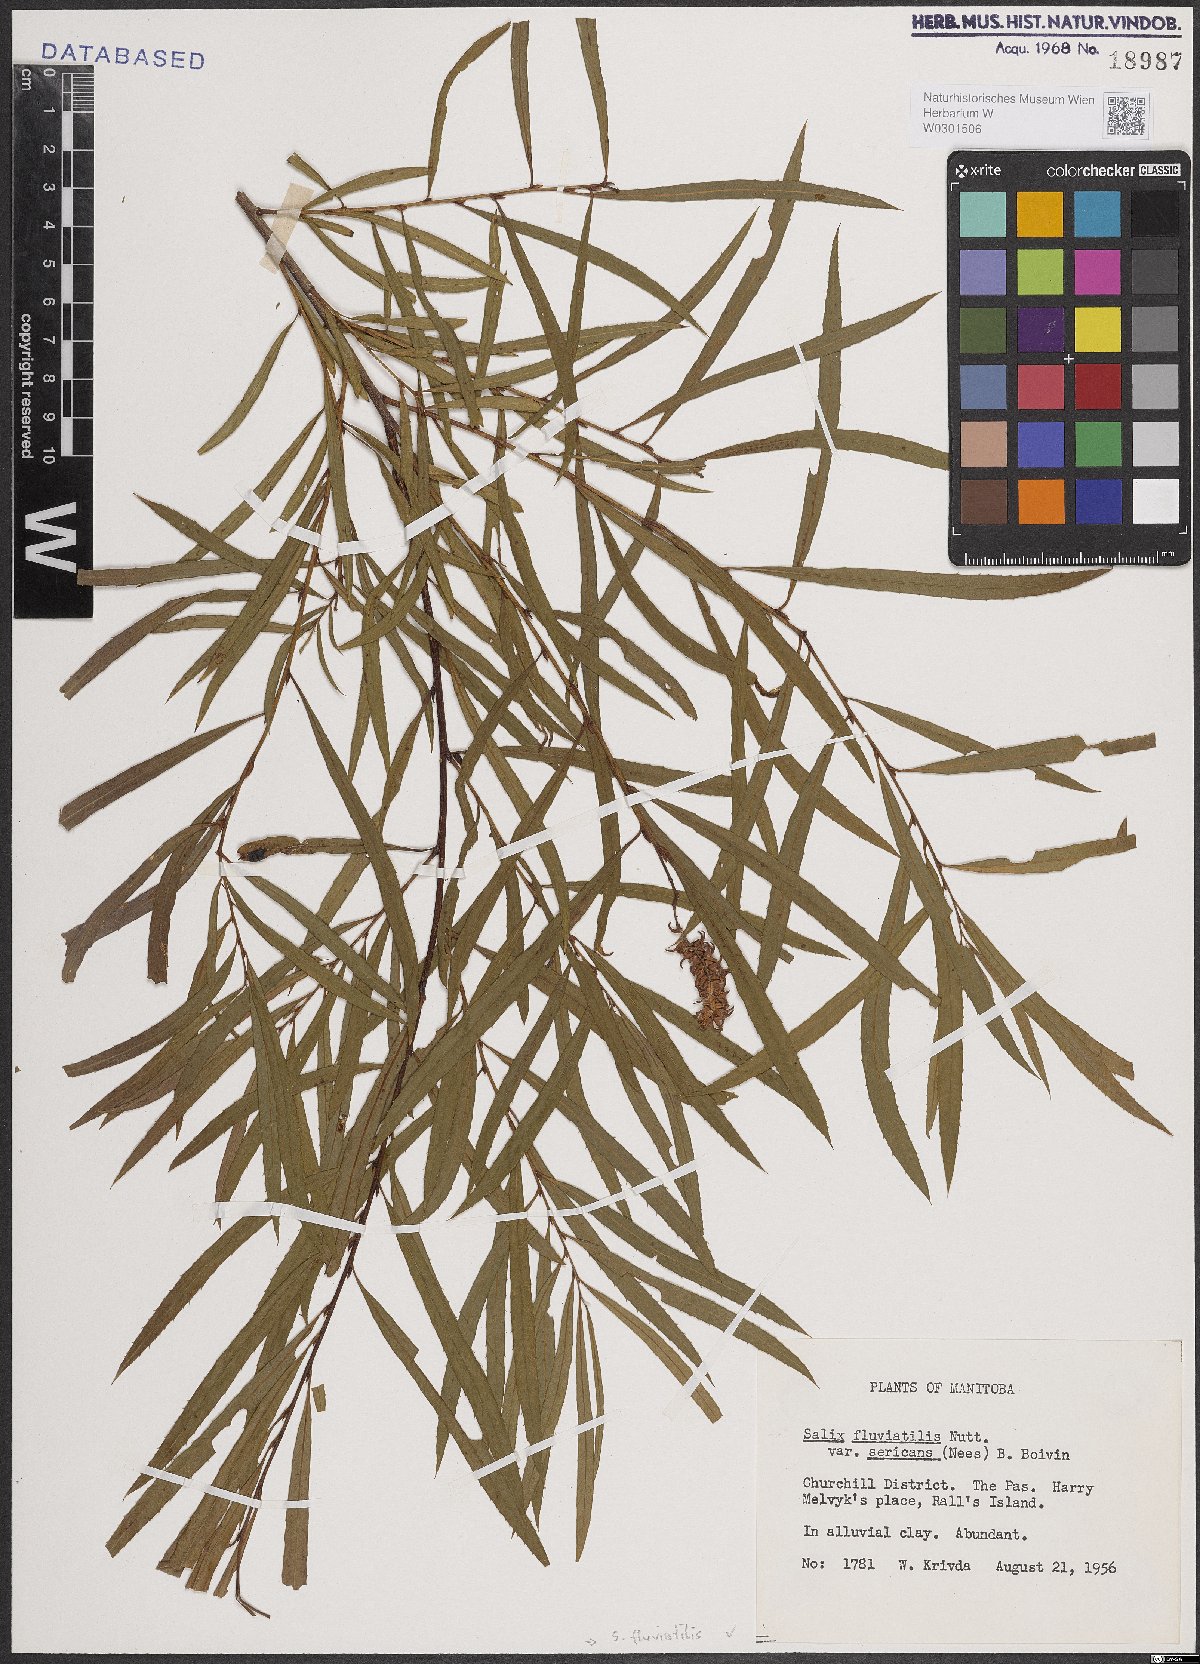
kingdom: Plantae
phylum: Tracheophyta
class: Magnoliopsida
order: Malpighiales
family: Salicaceae
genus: Salix
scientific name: Salix melanopsis
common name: Dusky willow
